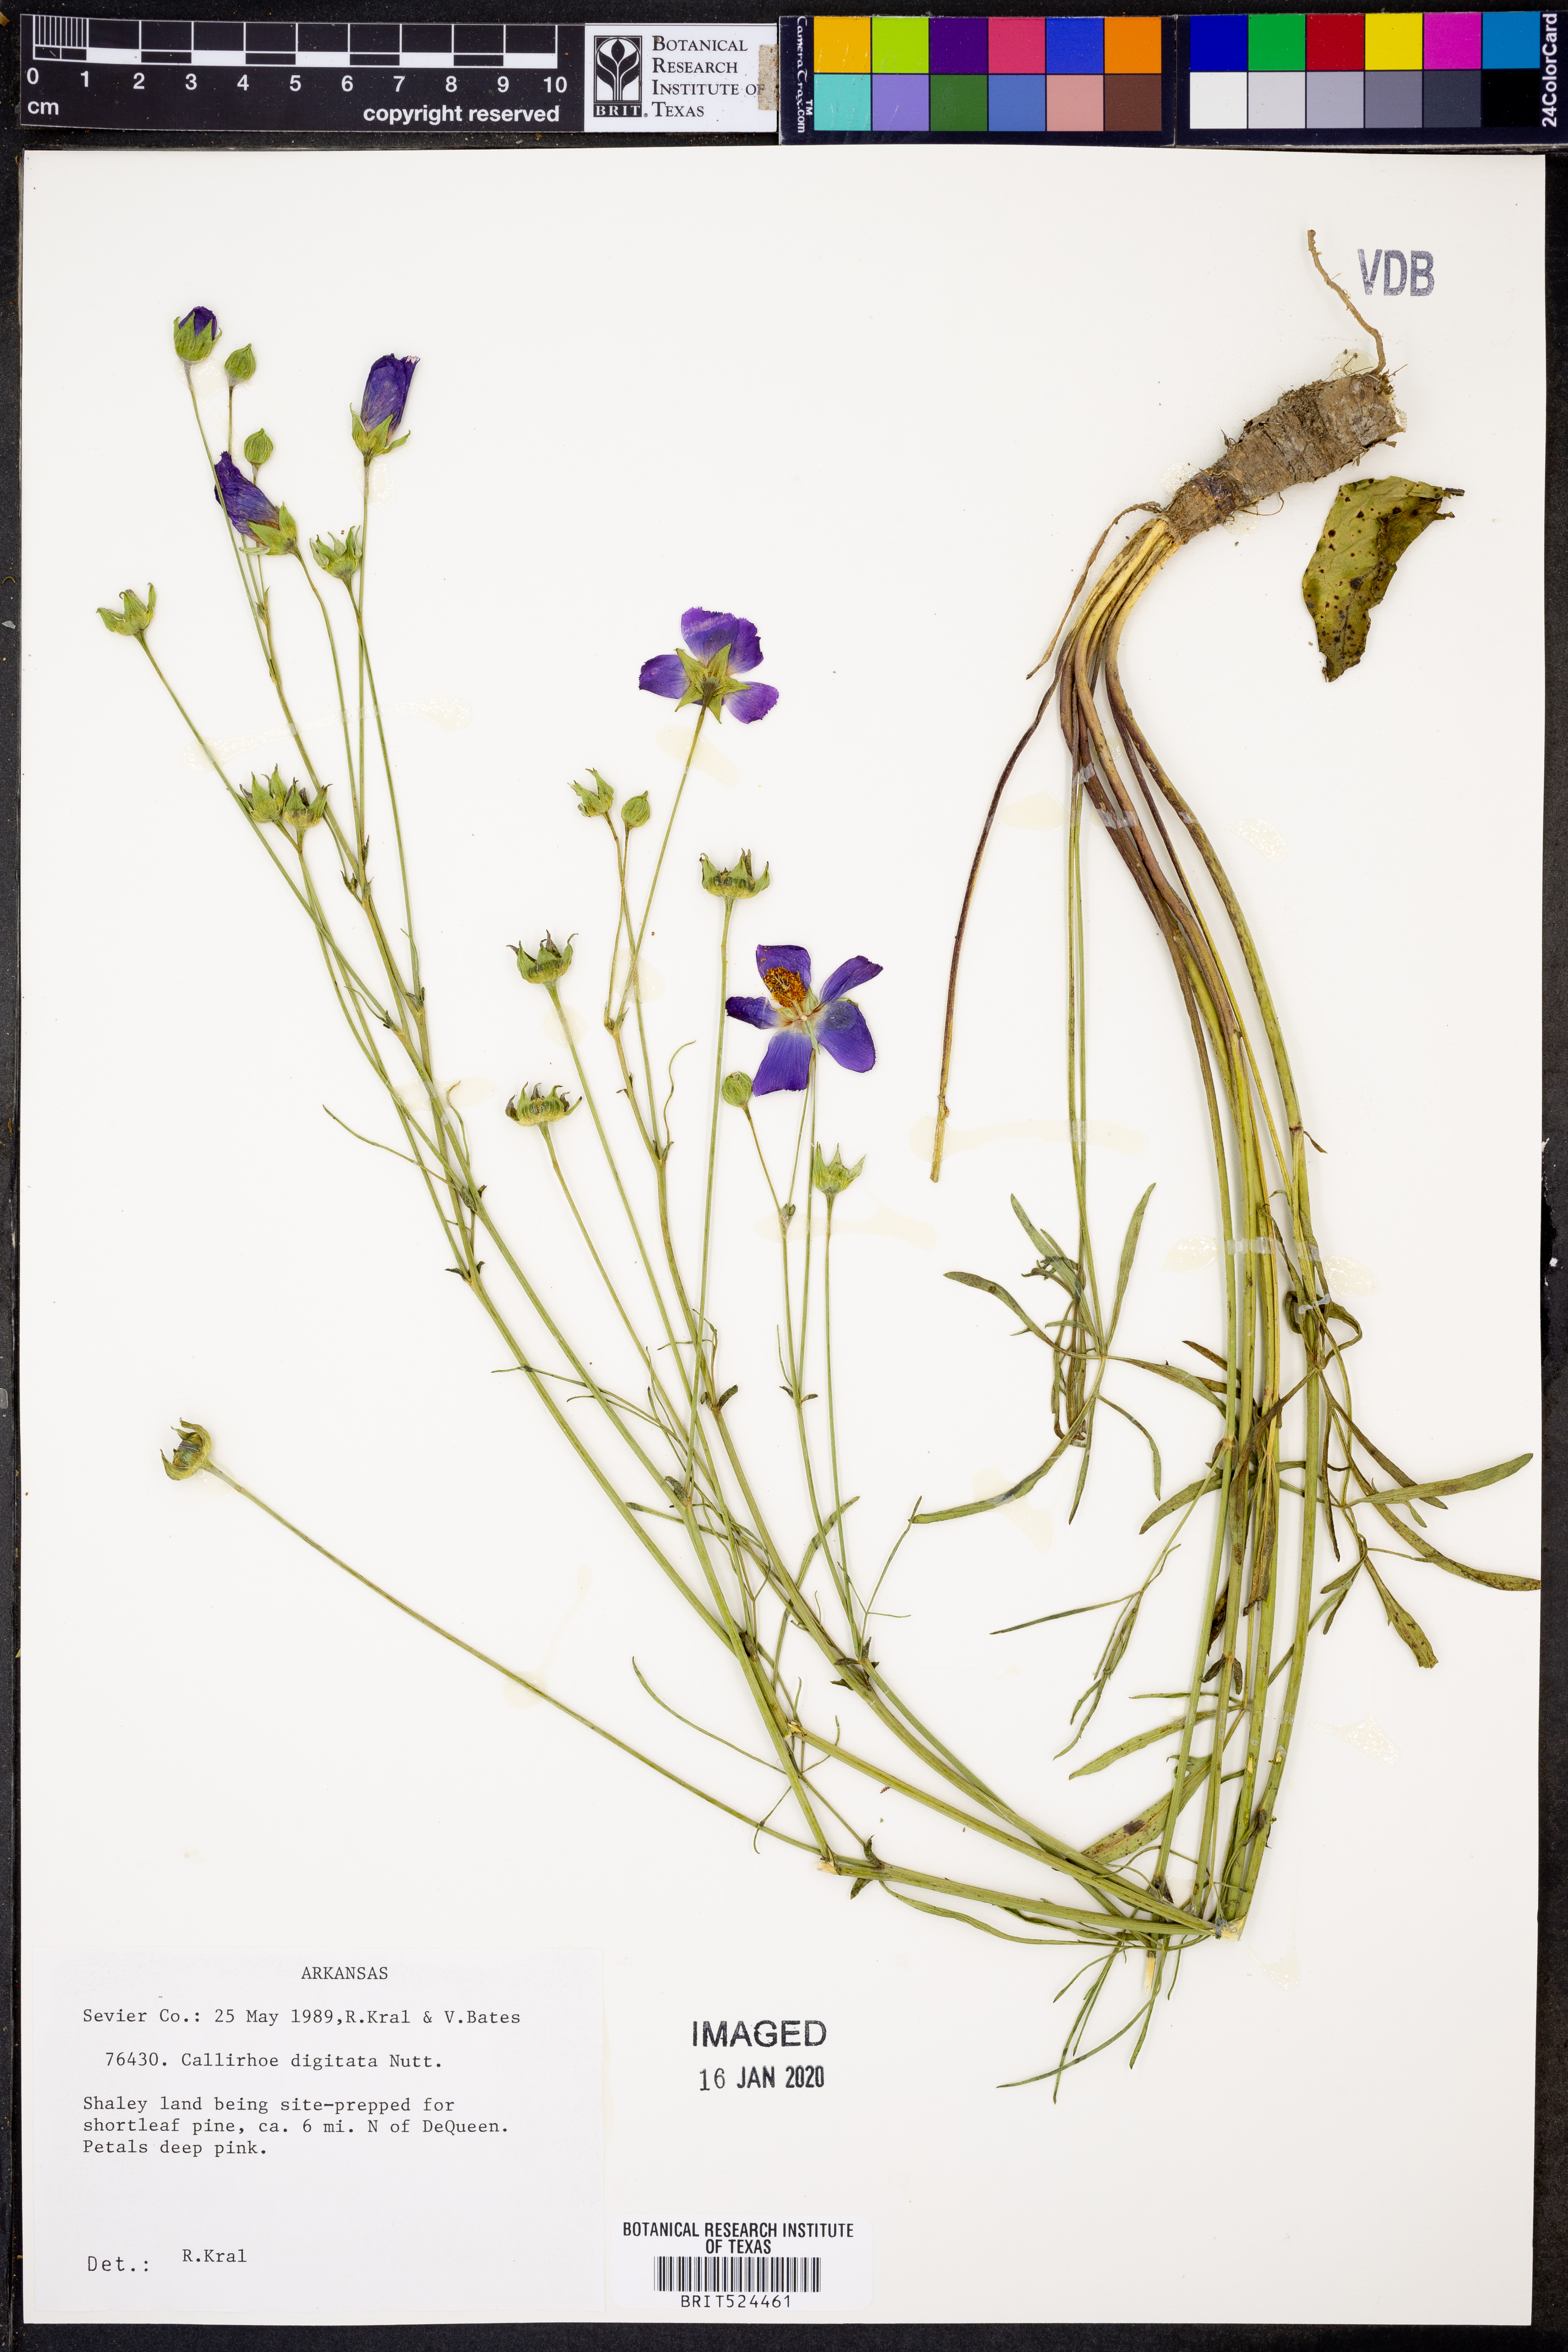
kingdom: Plantae
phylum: Tracheophyta
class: Magnoliopsida
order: Malvales
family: Malvaceae
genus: Callirhoe
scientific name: Callirhoe digitata
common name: Finger poppy-mallow
